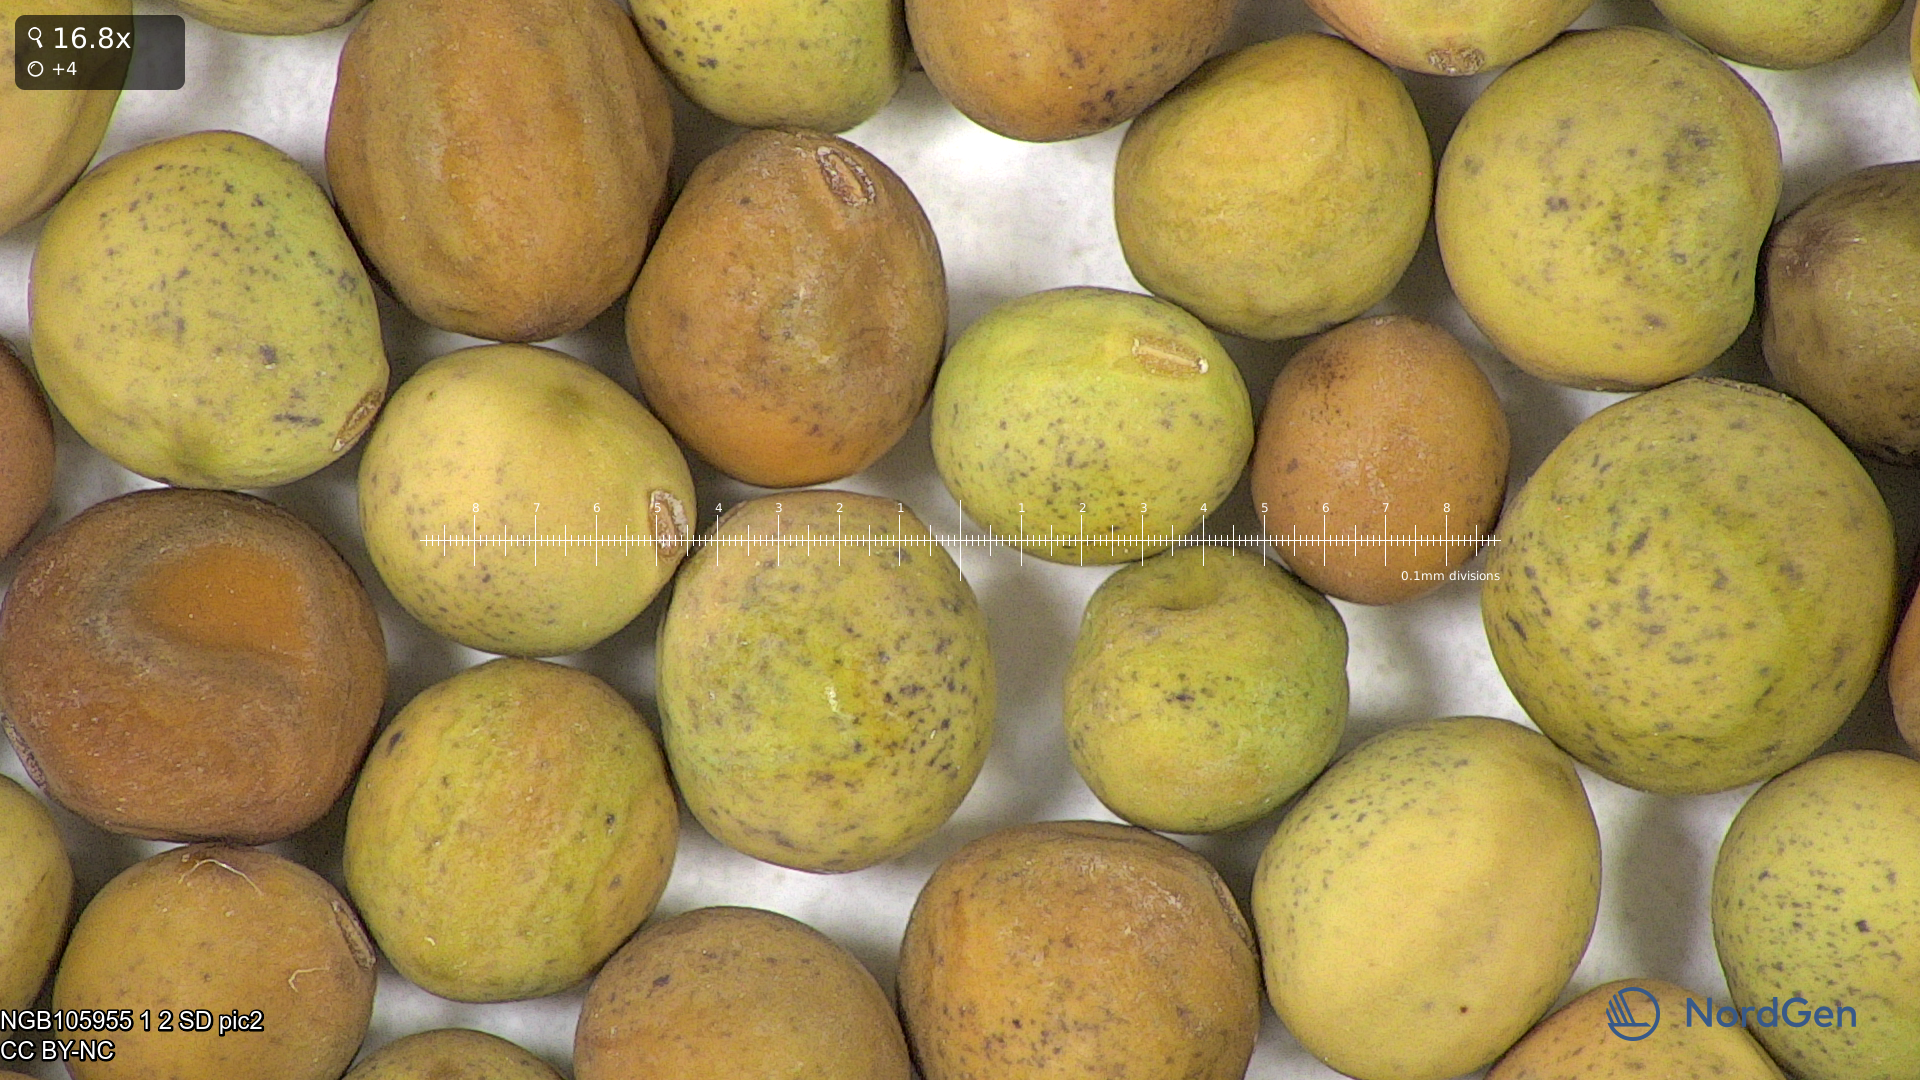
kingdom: Plantae
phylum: Tracheophyta
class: Magnoliopsida
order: Fabales
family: Fabaceae
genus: Lathyrus
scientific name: Lathyrus oleraceus
